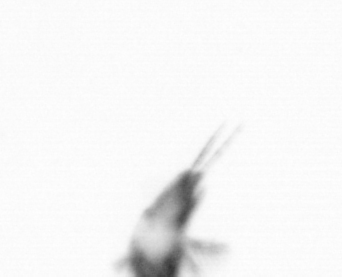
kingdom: Animalia
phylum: Arthropoda
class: Copepoda
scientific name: Copepoda
